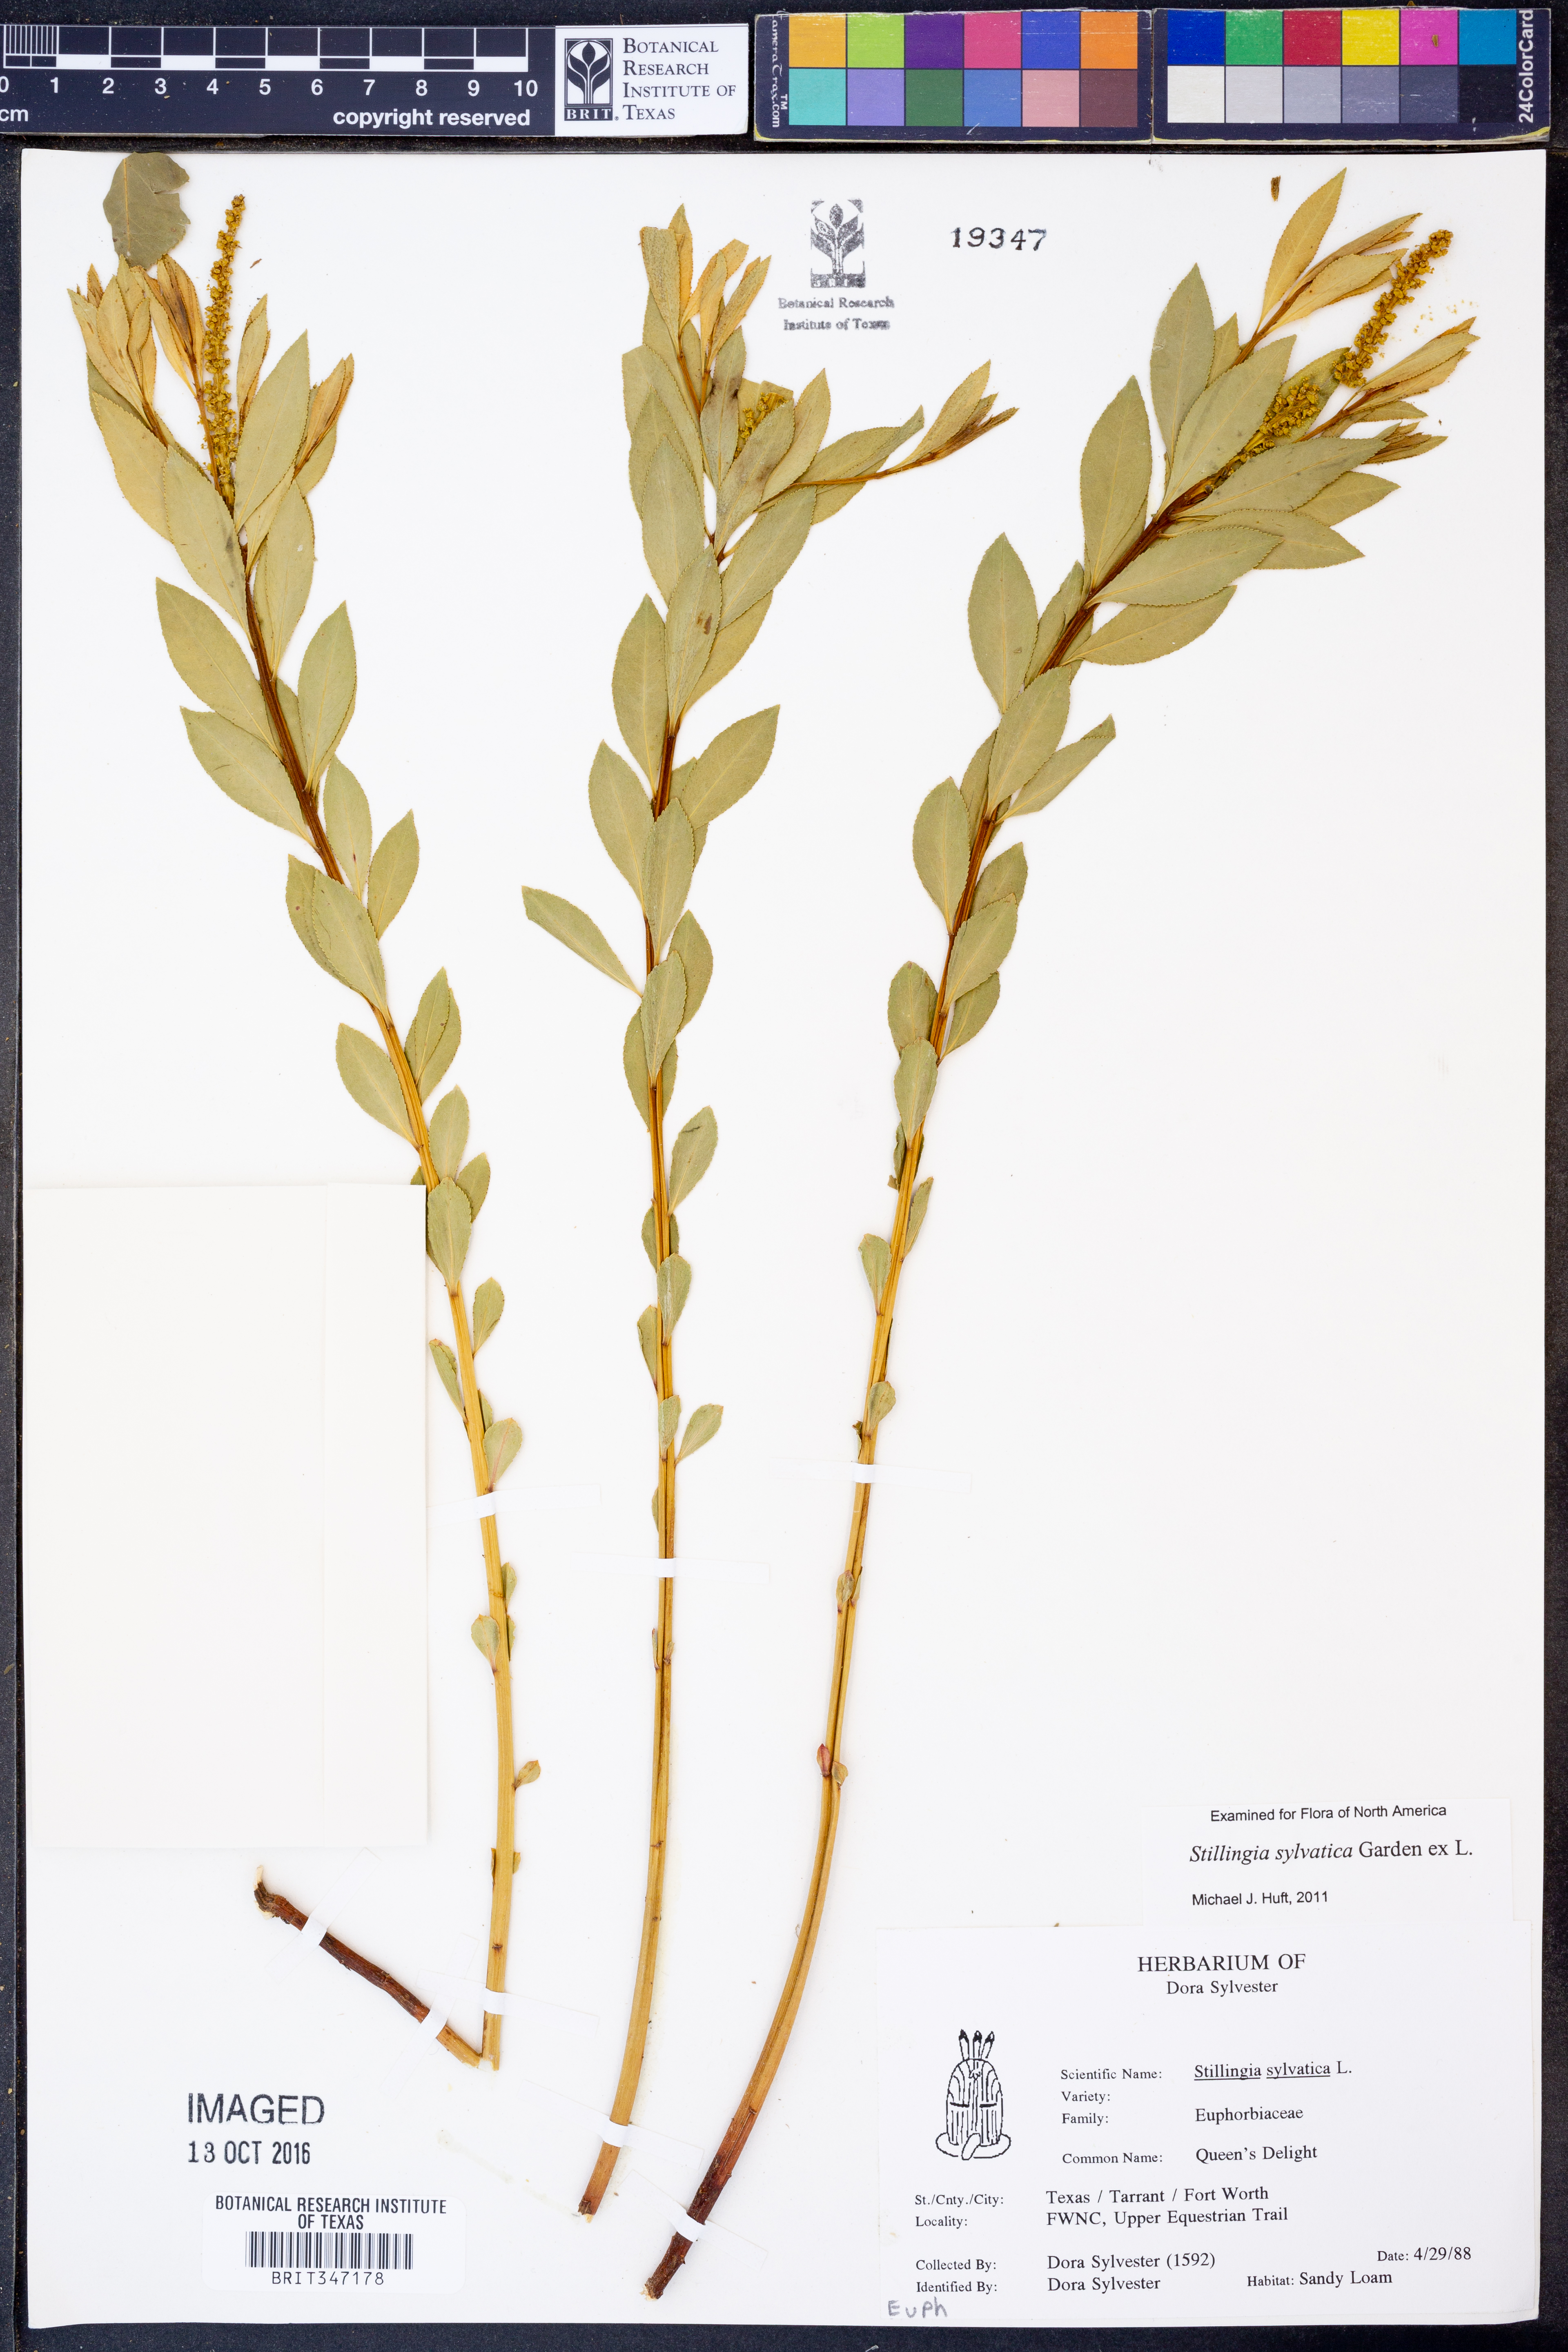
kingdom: Plantae
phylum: Tracheophyta
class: Magnoliopsida
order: Malpighiales
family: Euphorbiaceae
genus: Stillingia
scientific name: Stillingia sylvatica
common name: Queen's-delight
